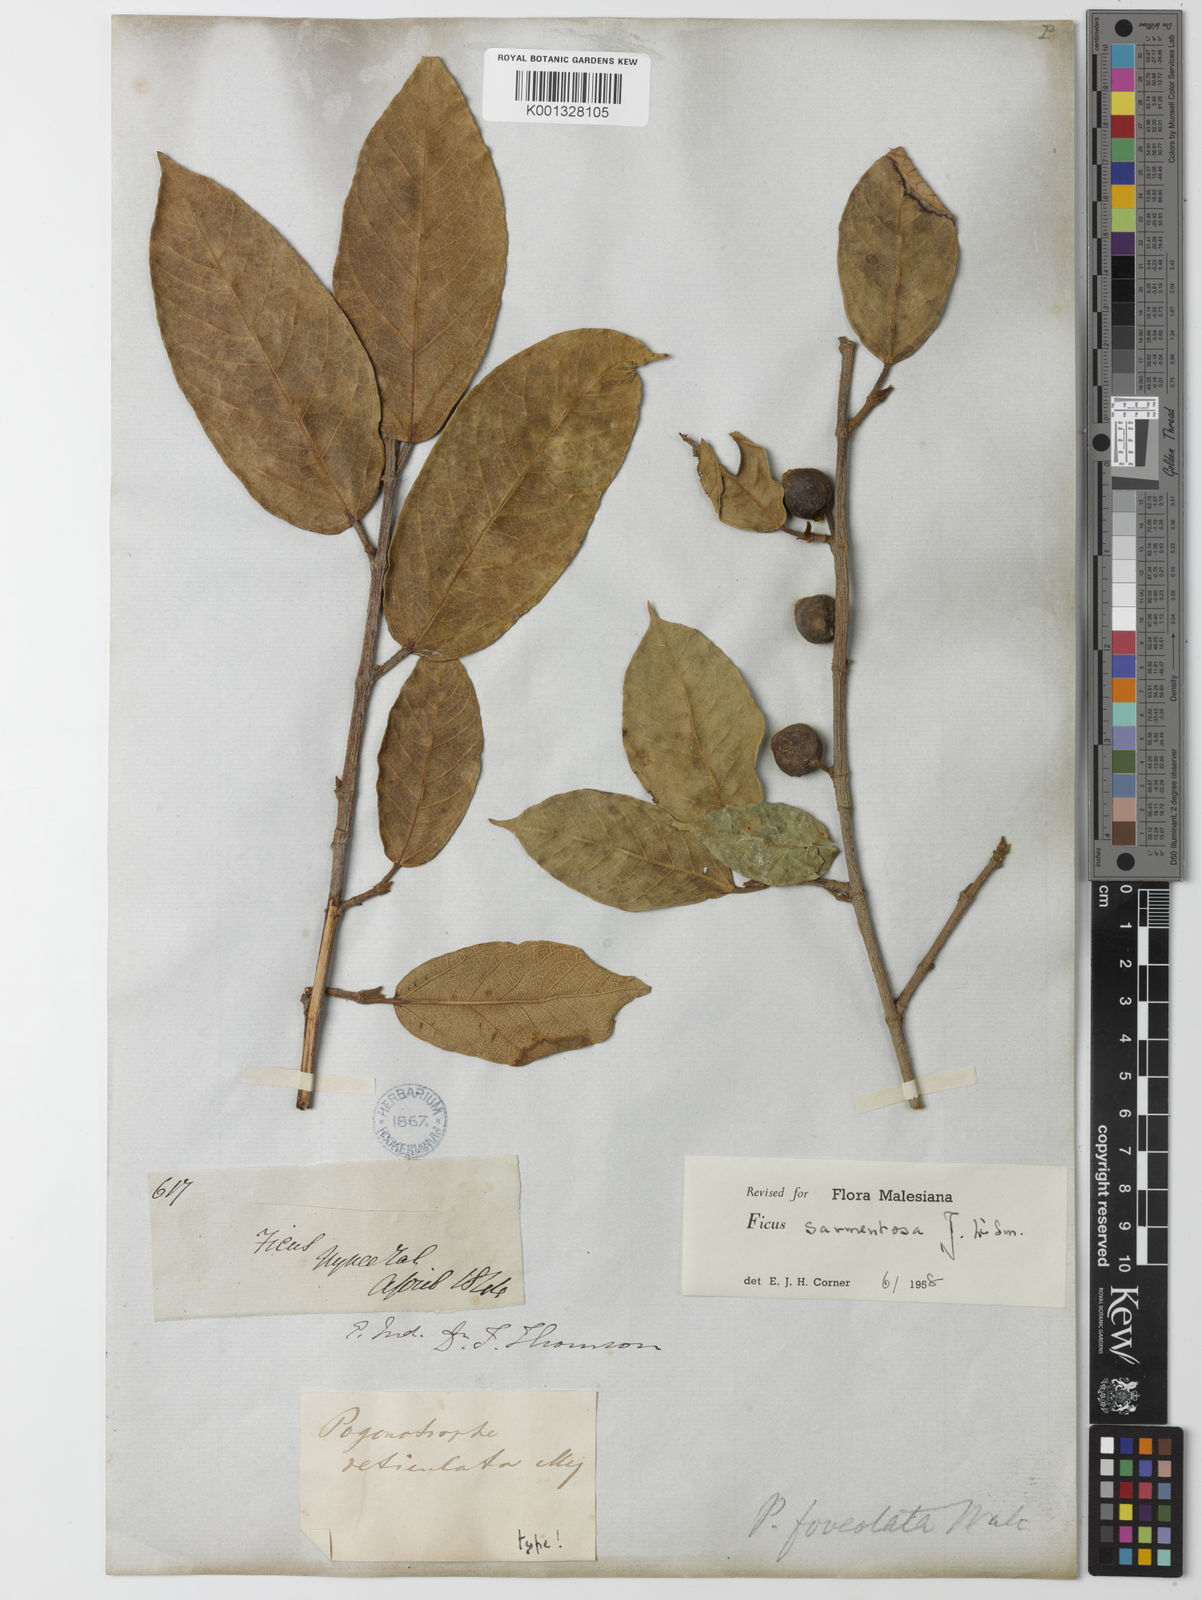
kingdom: Plantae
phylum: Tracheophyta
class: Magnoliopsida
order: Rosales
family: Moraceae
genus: Ficus
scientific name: Ficus sarmentosa
